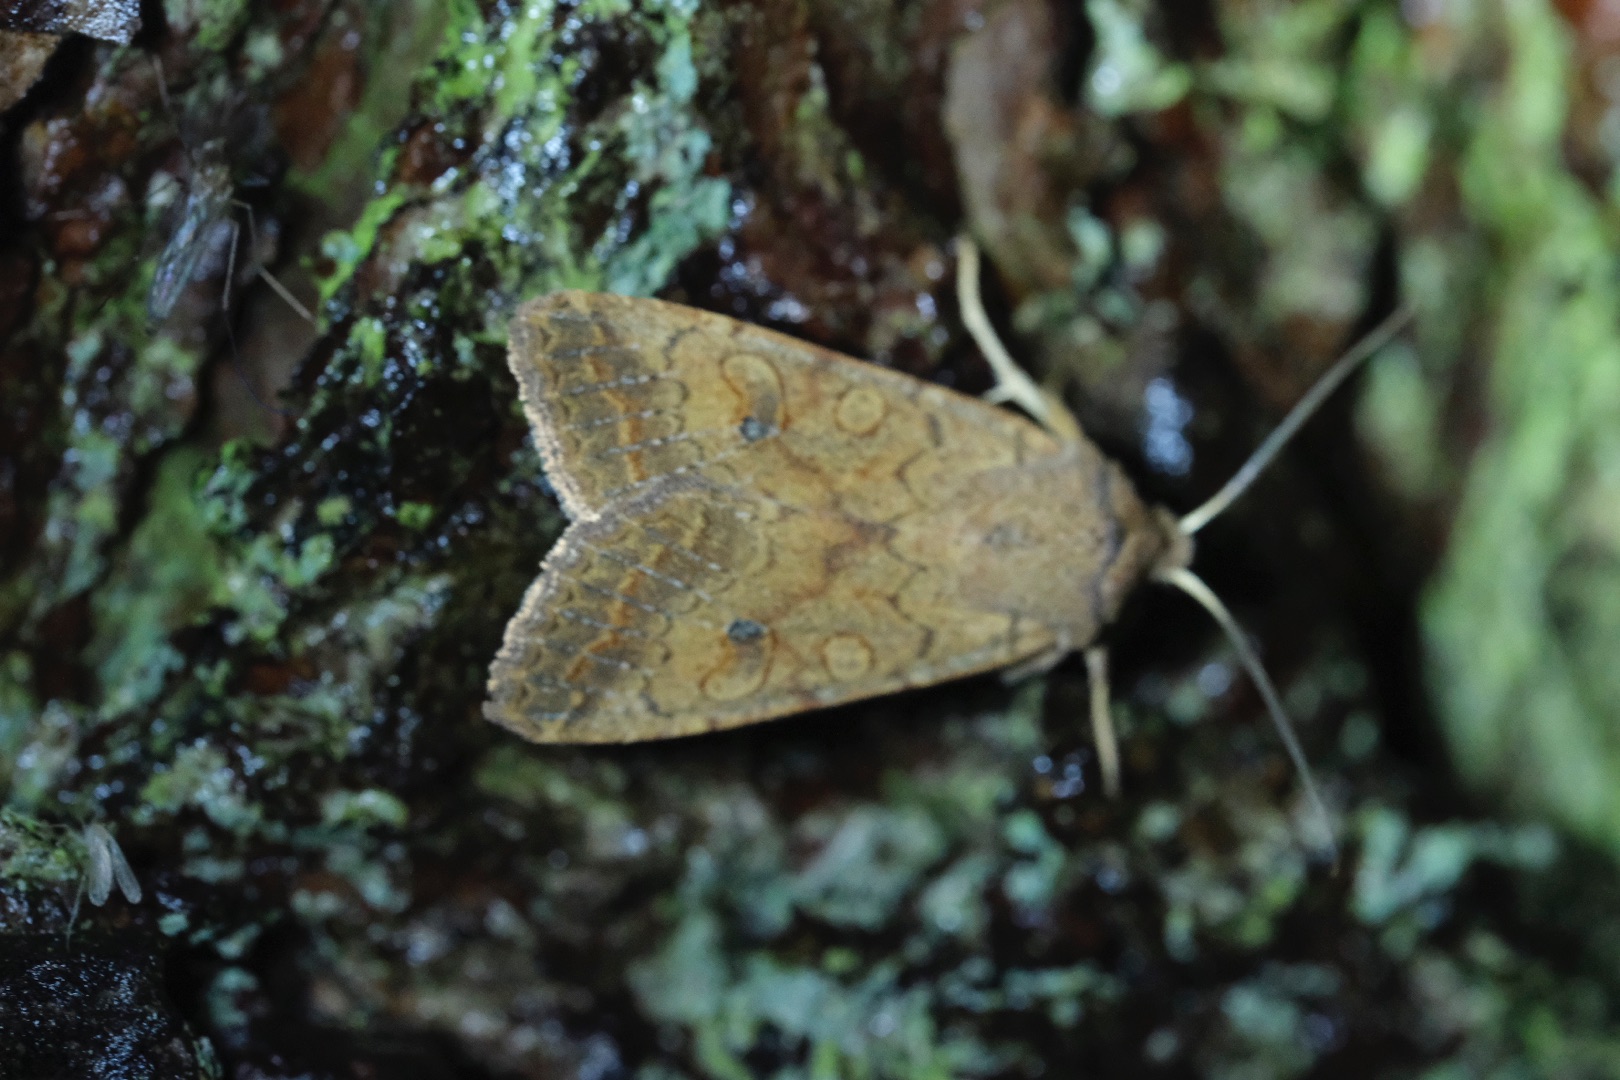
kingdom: Animalia
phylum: Arthropoda
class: Insecta
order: Lepidoptera
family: Noctuidae
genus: Sunira
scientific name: Sunira circellaris
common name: Cirkel-jordfarveugle
